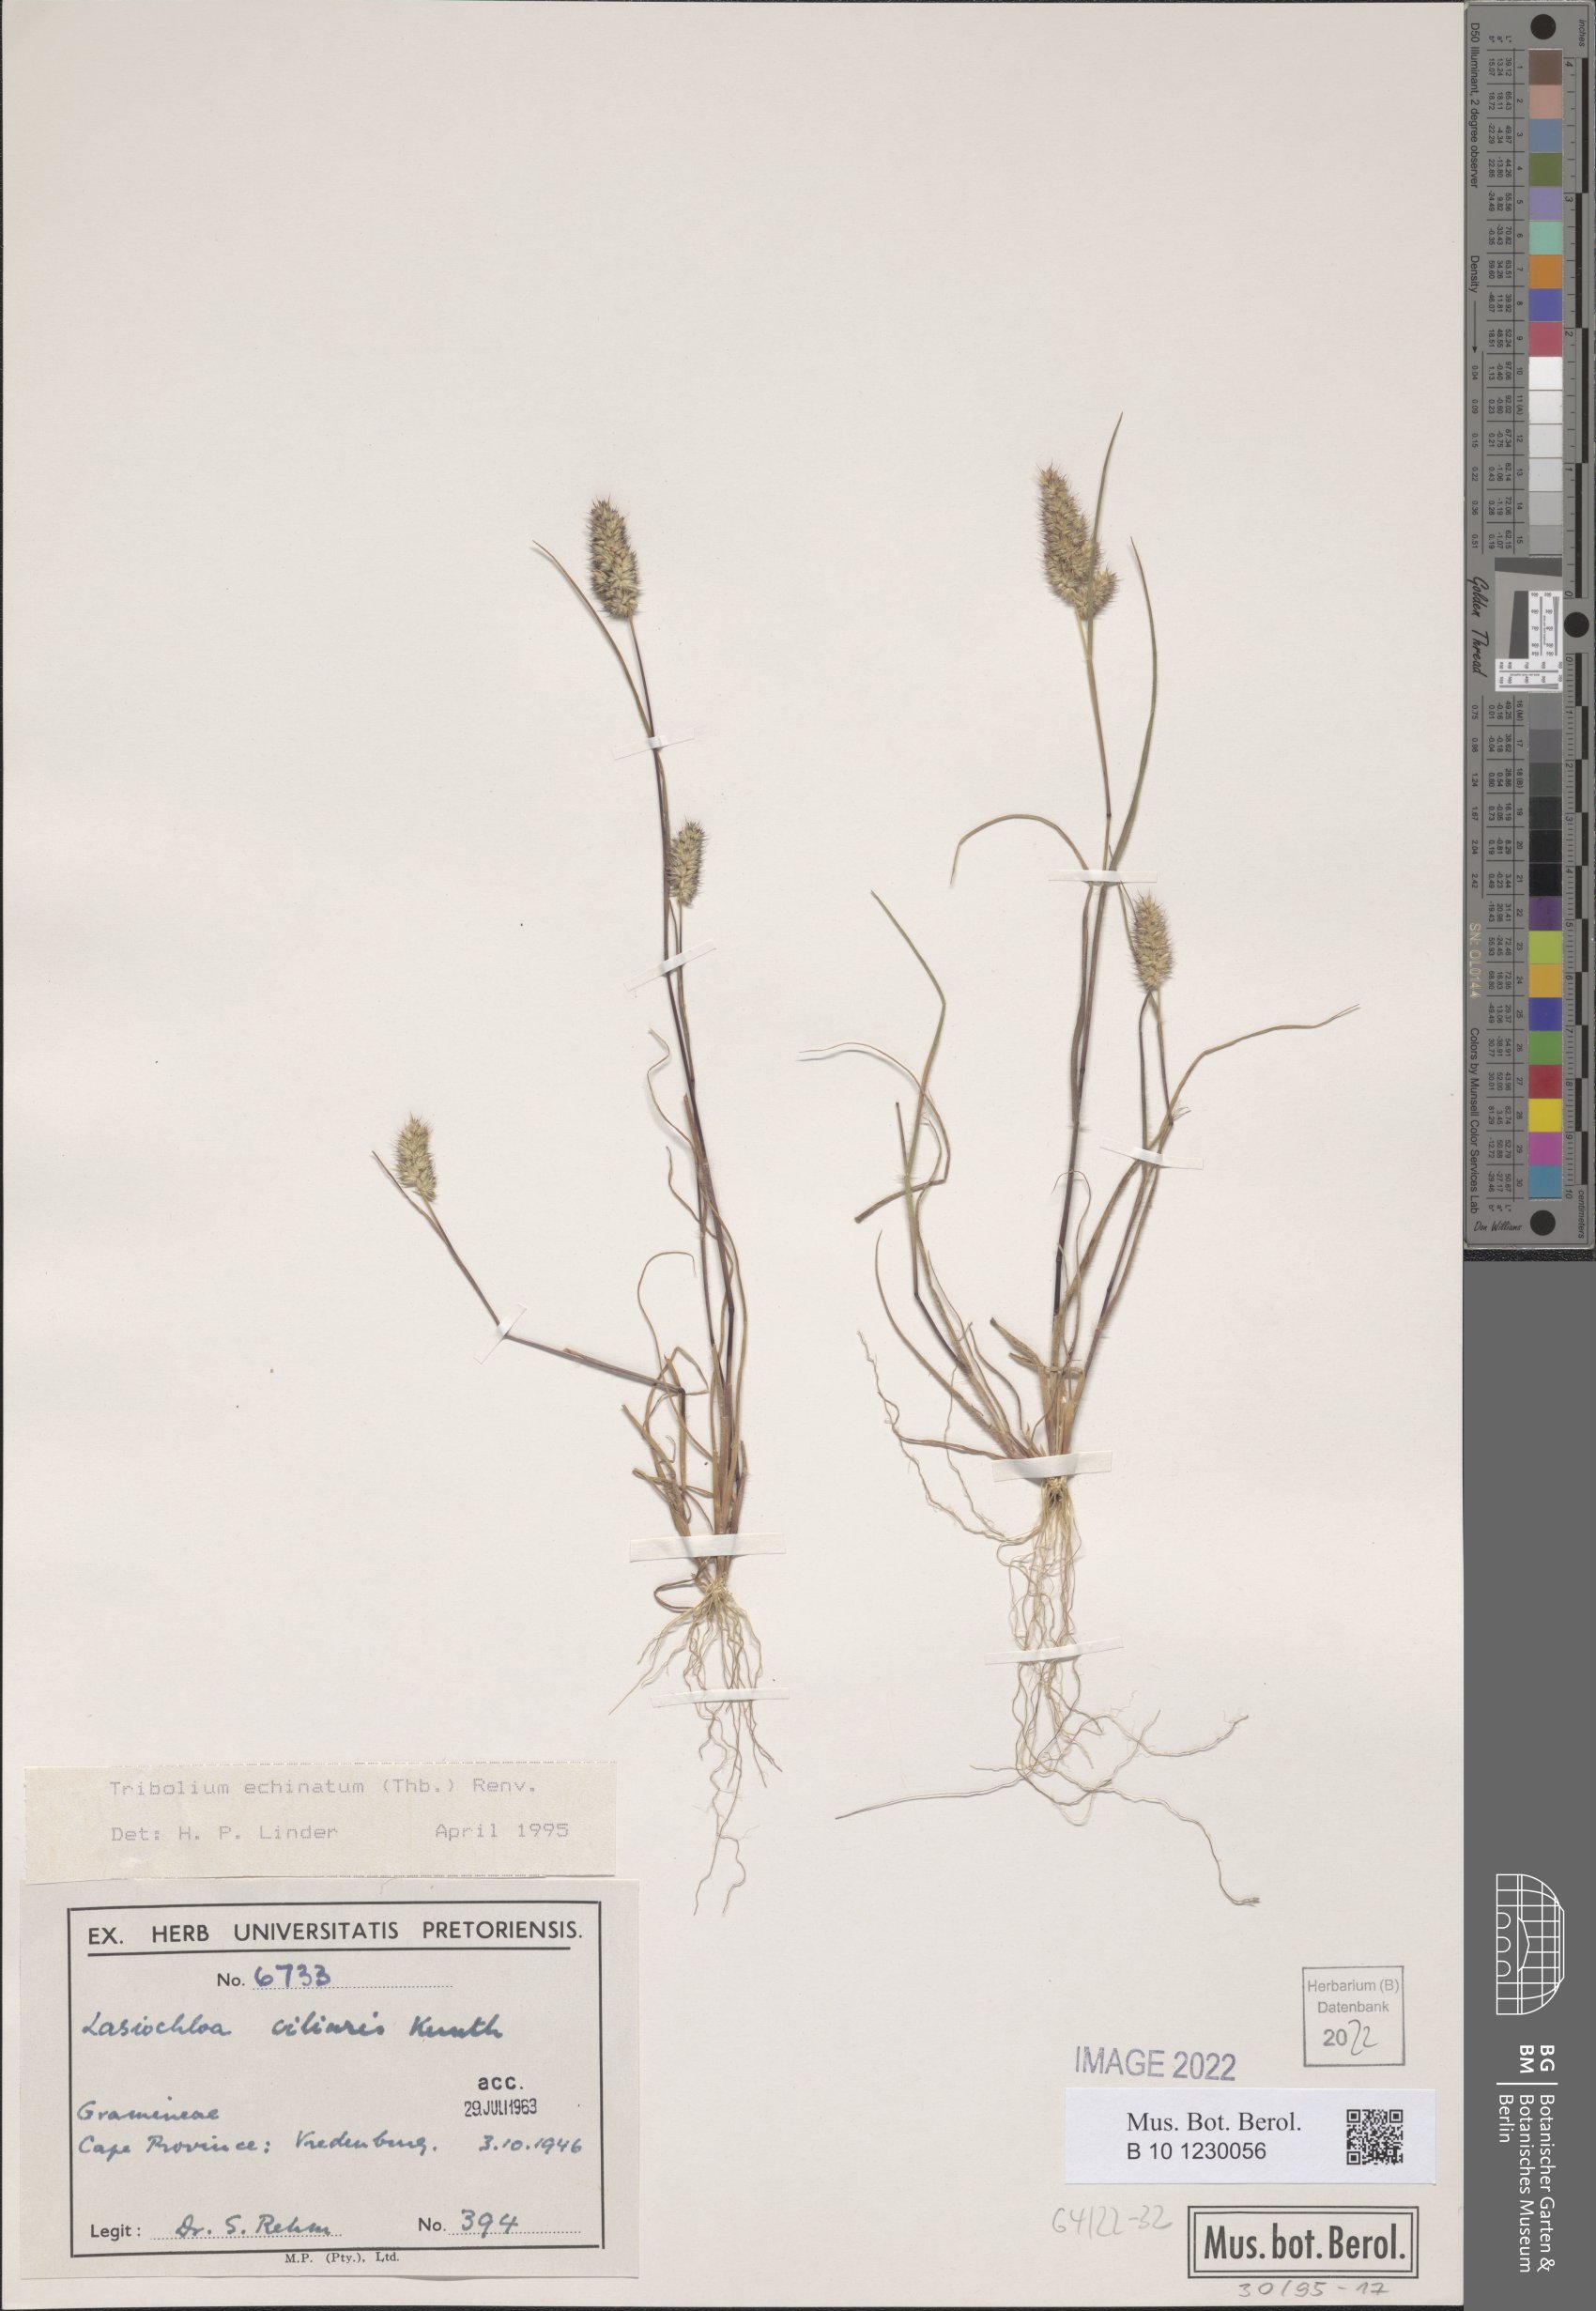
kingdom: Plantae
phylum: Tracheophyta
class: Liliopsida
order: Poales
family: Poaceae
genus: Tribolium
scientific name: Tribolium echinatum
